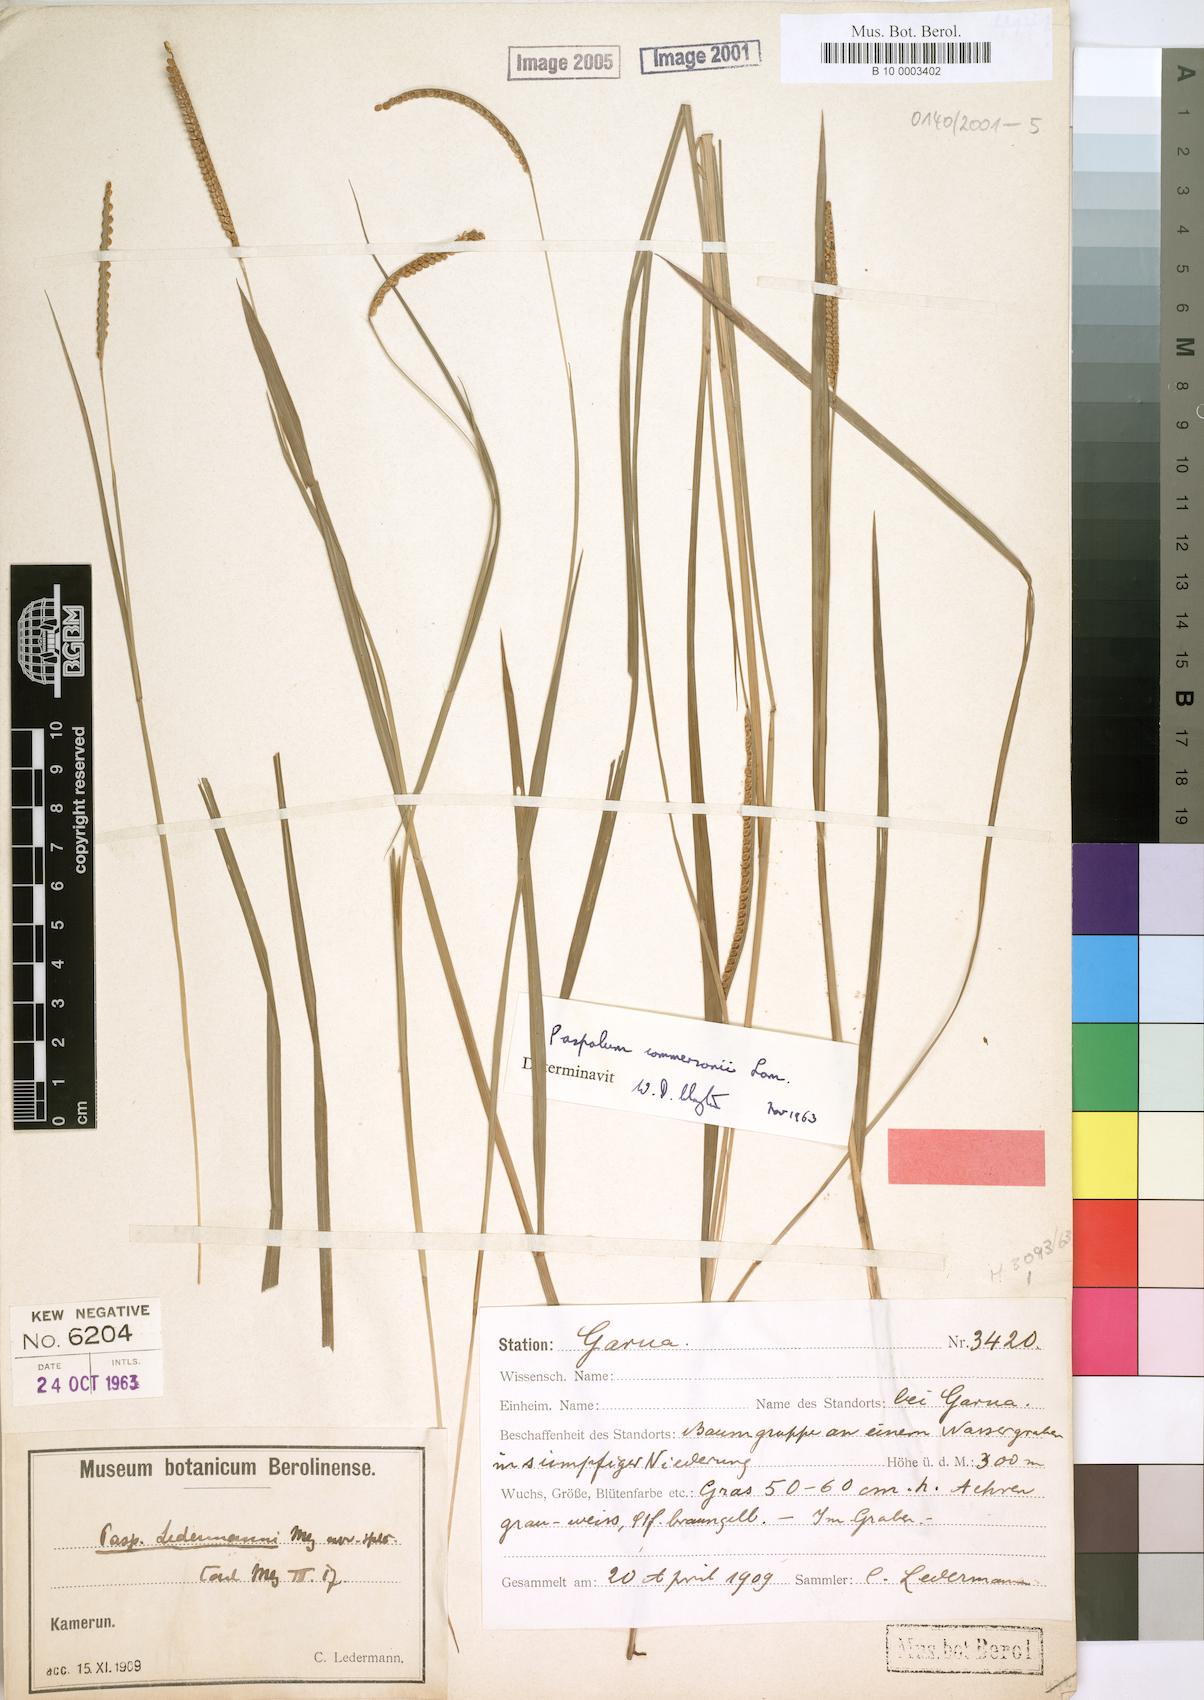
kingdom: Plantae
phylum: Tracheophyta
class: Liliopsida
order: Poales
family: Poaceae
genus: Paspalum
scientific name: Paspalum scrobiculatum
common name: Kodo millet
